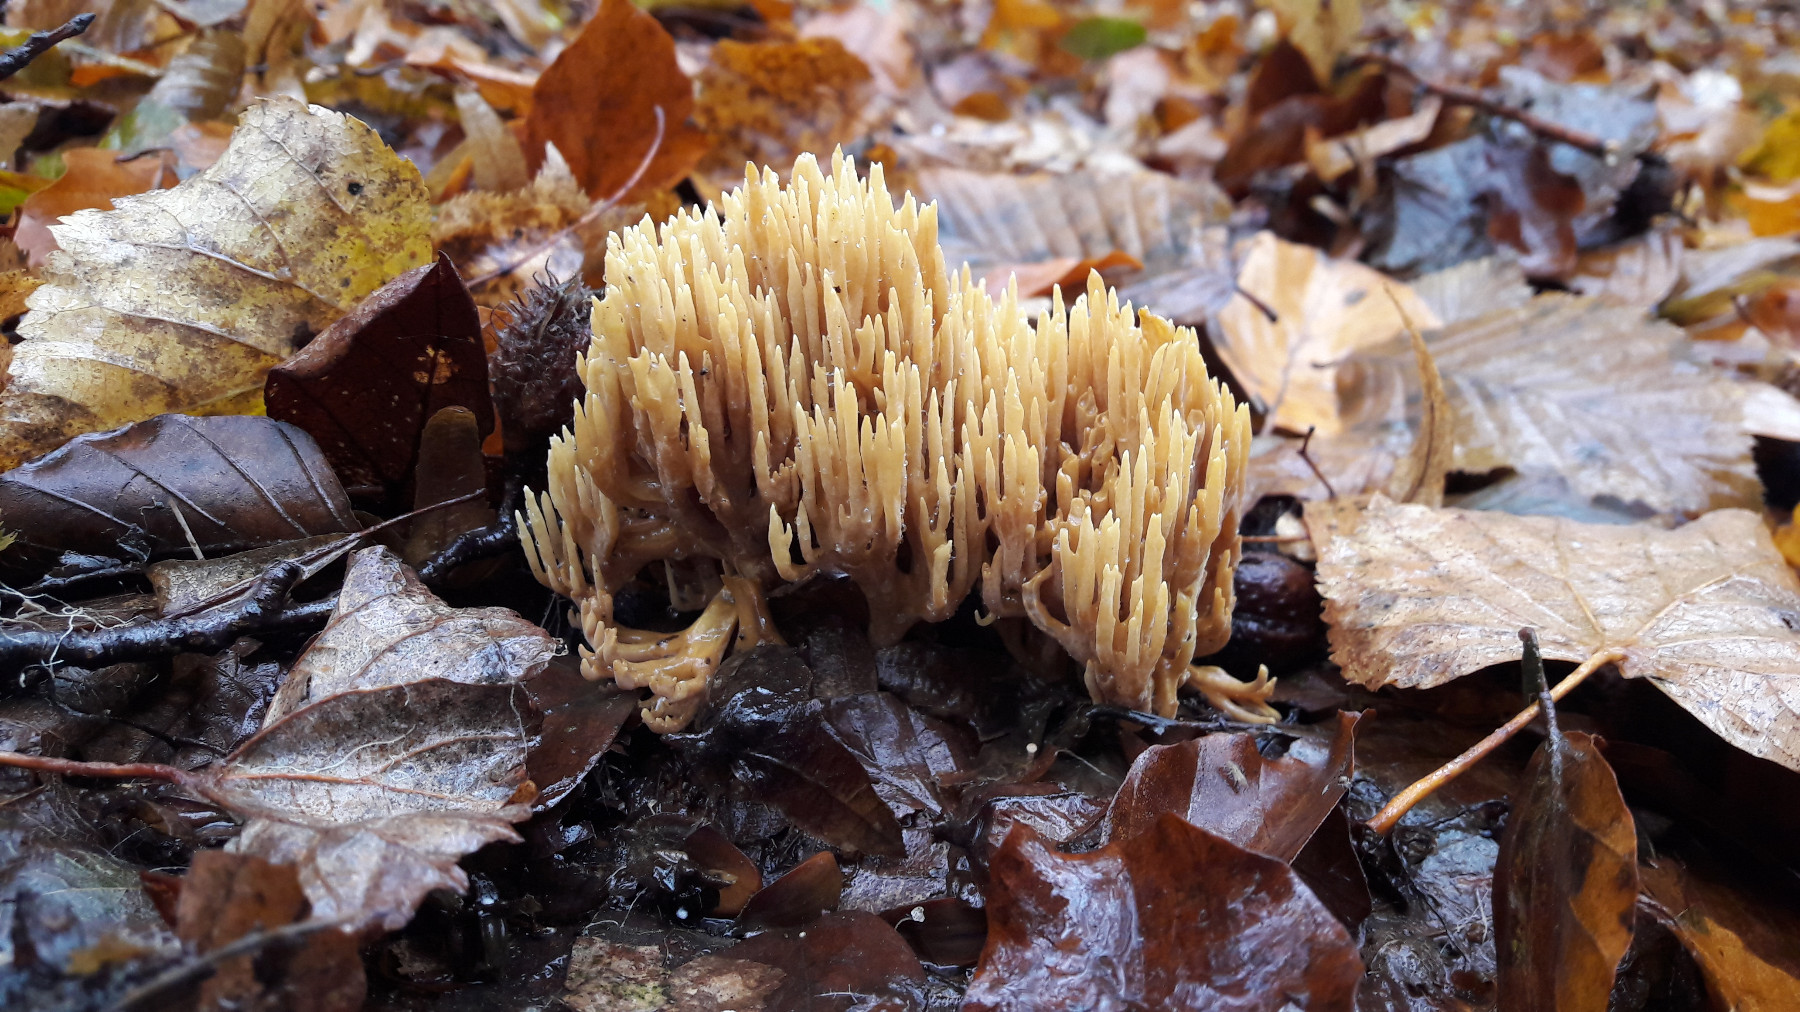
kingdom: Fungi
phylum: Basidiomycota
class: Agaricomycetes
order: Gomphales
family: Gomphaceae
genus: Ramaria
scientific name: Ramaria stricta
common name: rank koralsvamp
